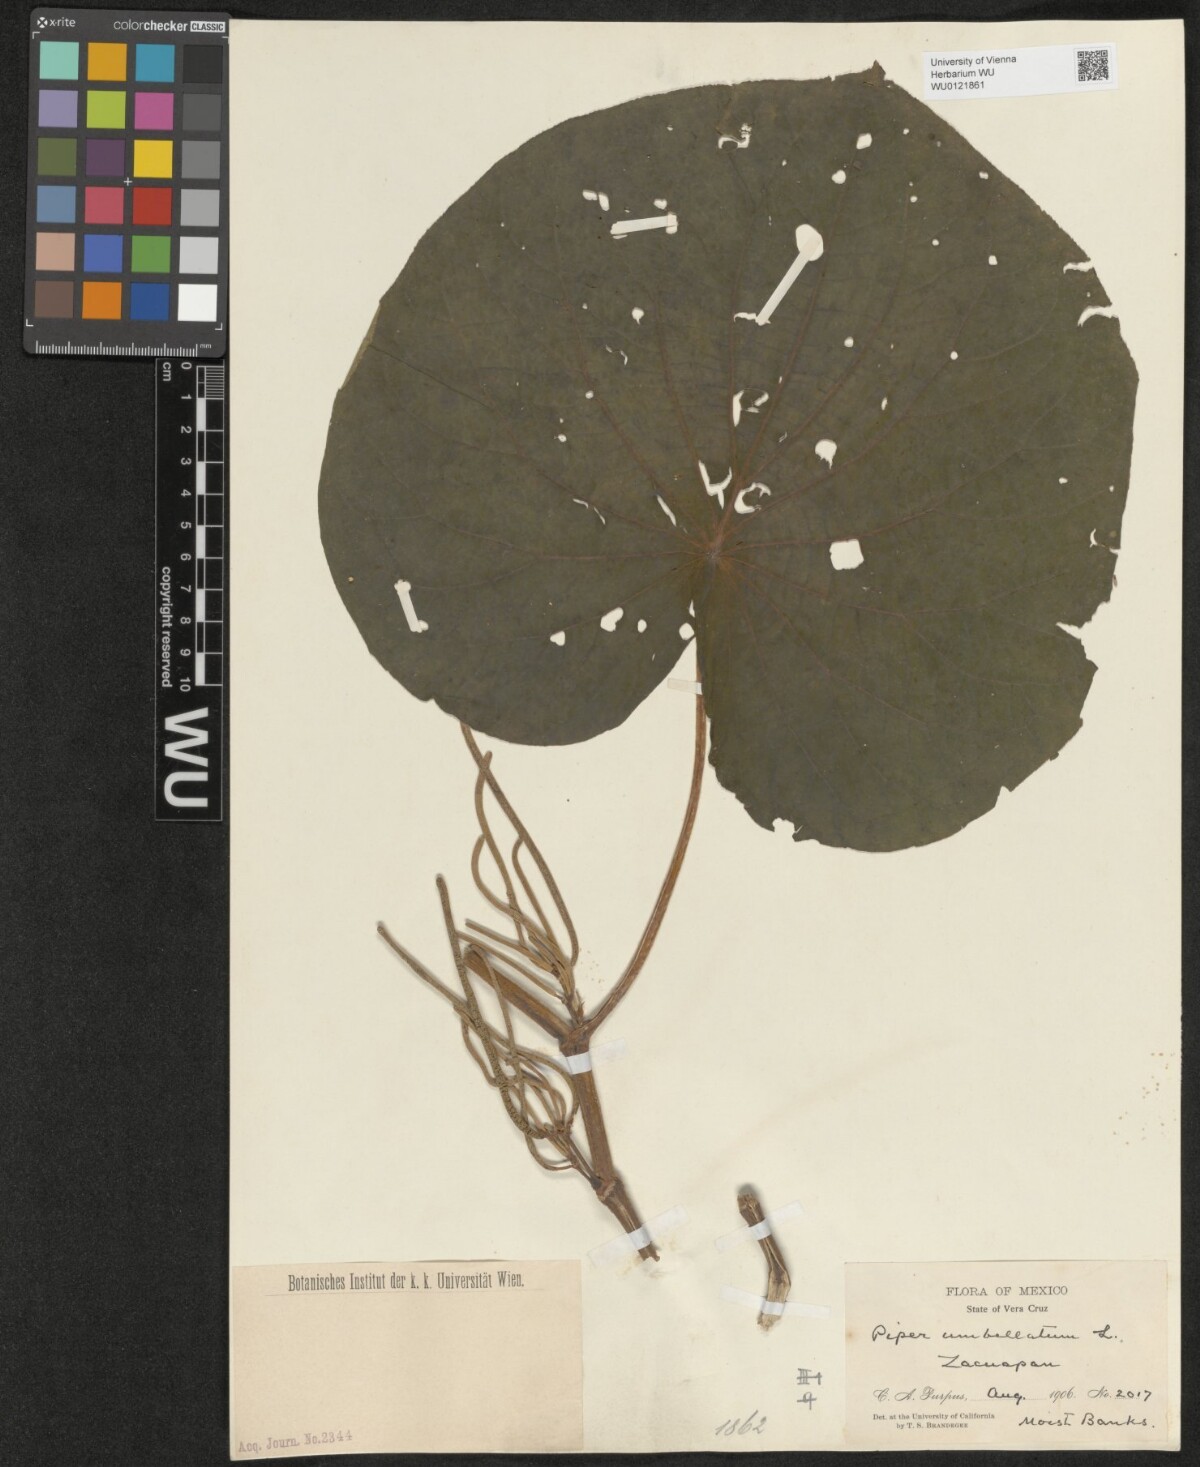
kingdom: Plantae
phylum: Tracheophyta
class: Magnoliopsida
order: Piperales
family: Piperaceae
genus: Piper
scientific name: Piper umbellatum
